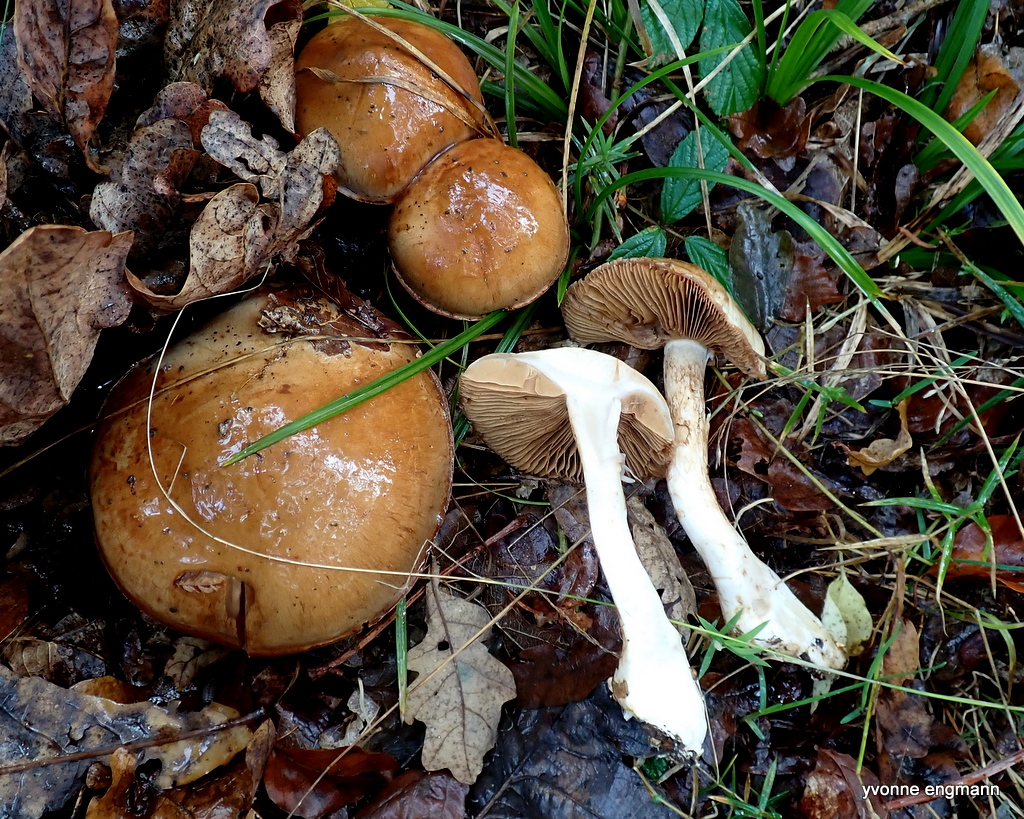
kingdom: Fungi
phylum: Basidiomycota
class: Agaricomycetes
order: Agaricales
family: Cortinariaceae
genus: Cortinarius
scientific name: Cortinarius
